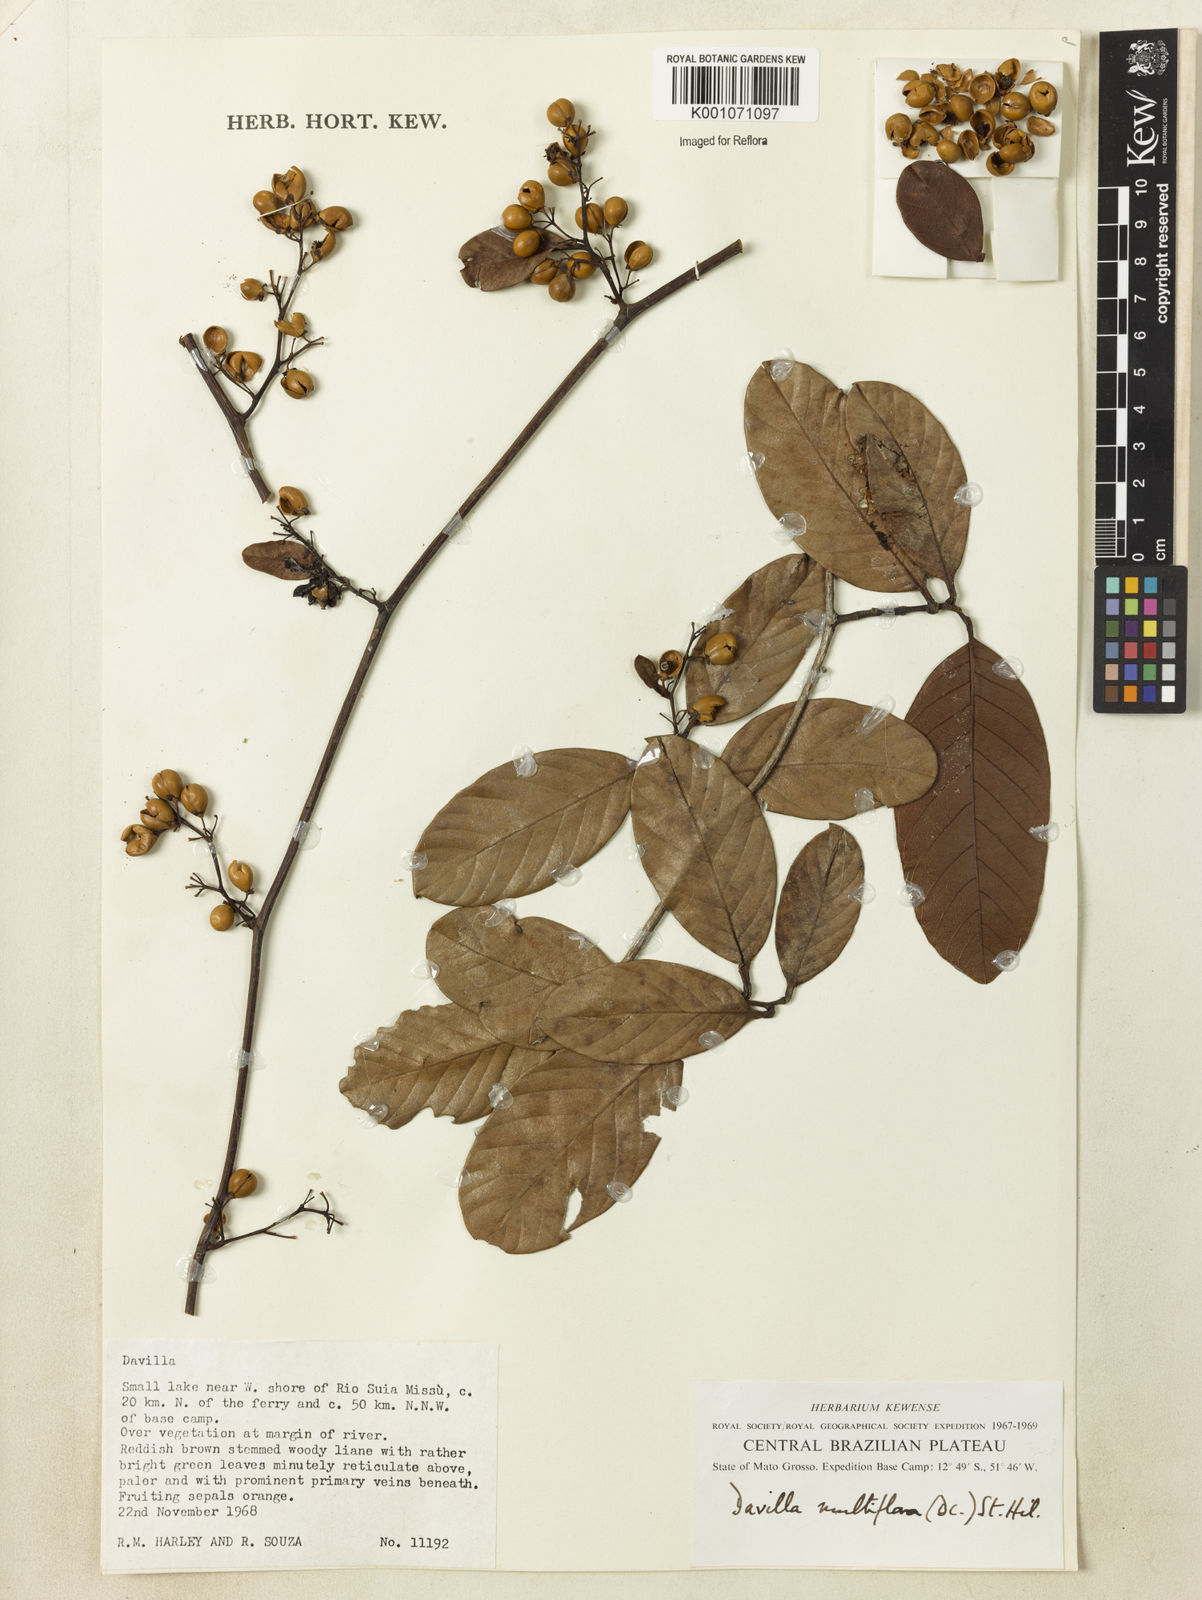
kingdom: Plantae
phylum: Tracheophyta
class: Magnoliopsida
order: Dilleniales
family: Dilleniaceae
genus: Davilla
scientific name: Davilla nitida
